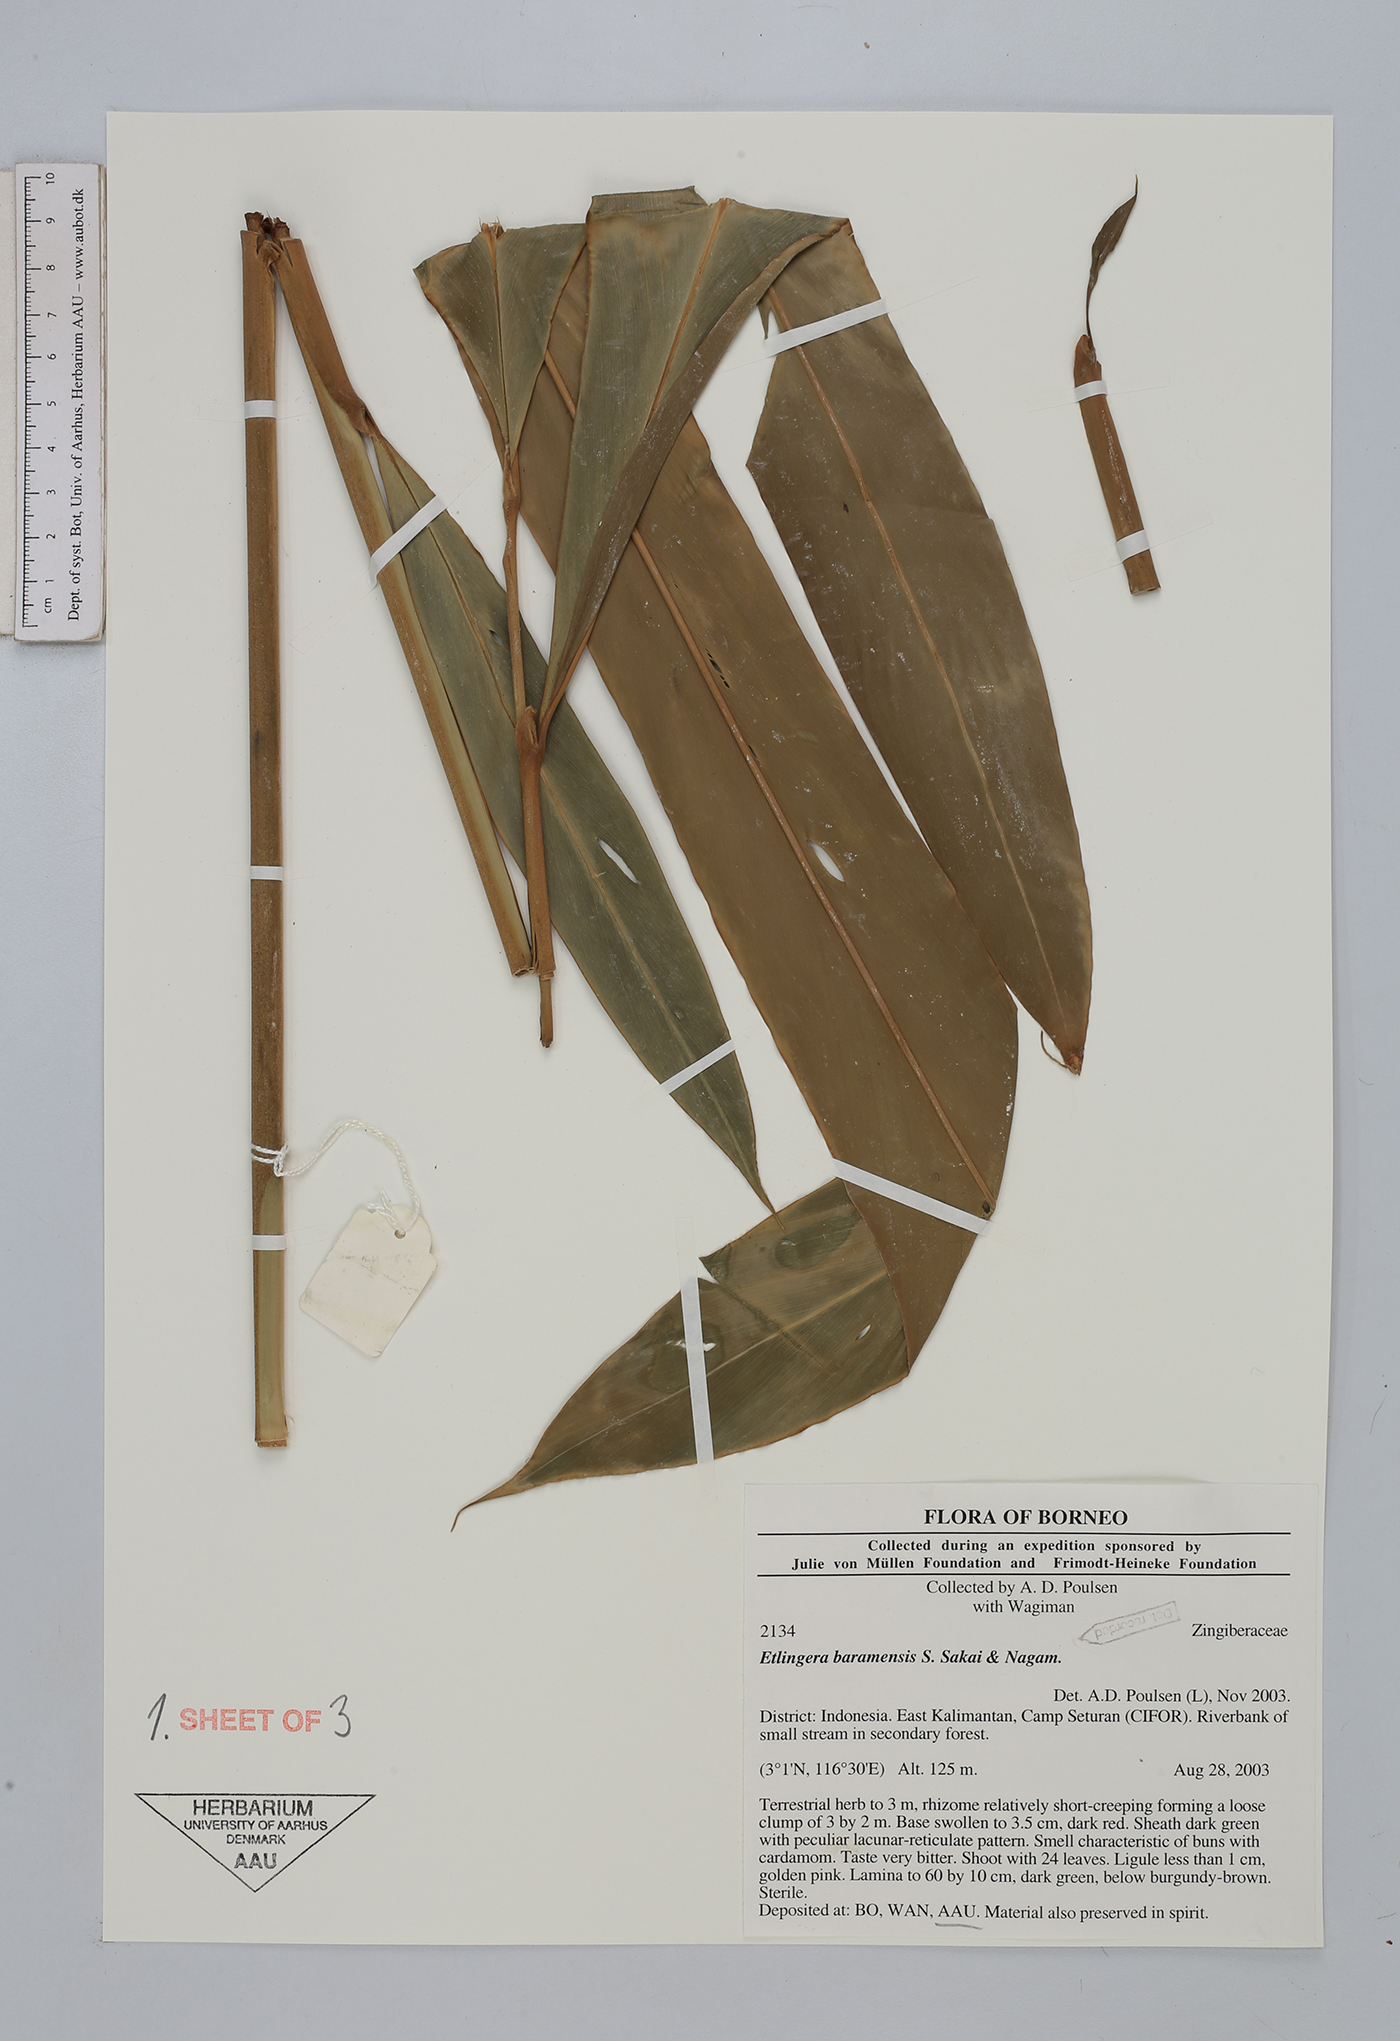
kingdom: Plantae
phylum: Tracheophyta
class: Liliopsida
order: Zingiberales
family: Zingiberaceae
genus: Etlingera
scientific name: Etlingera baramensis
